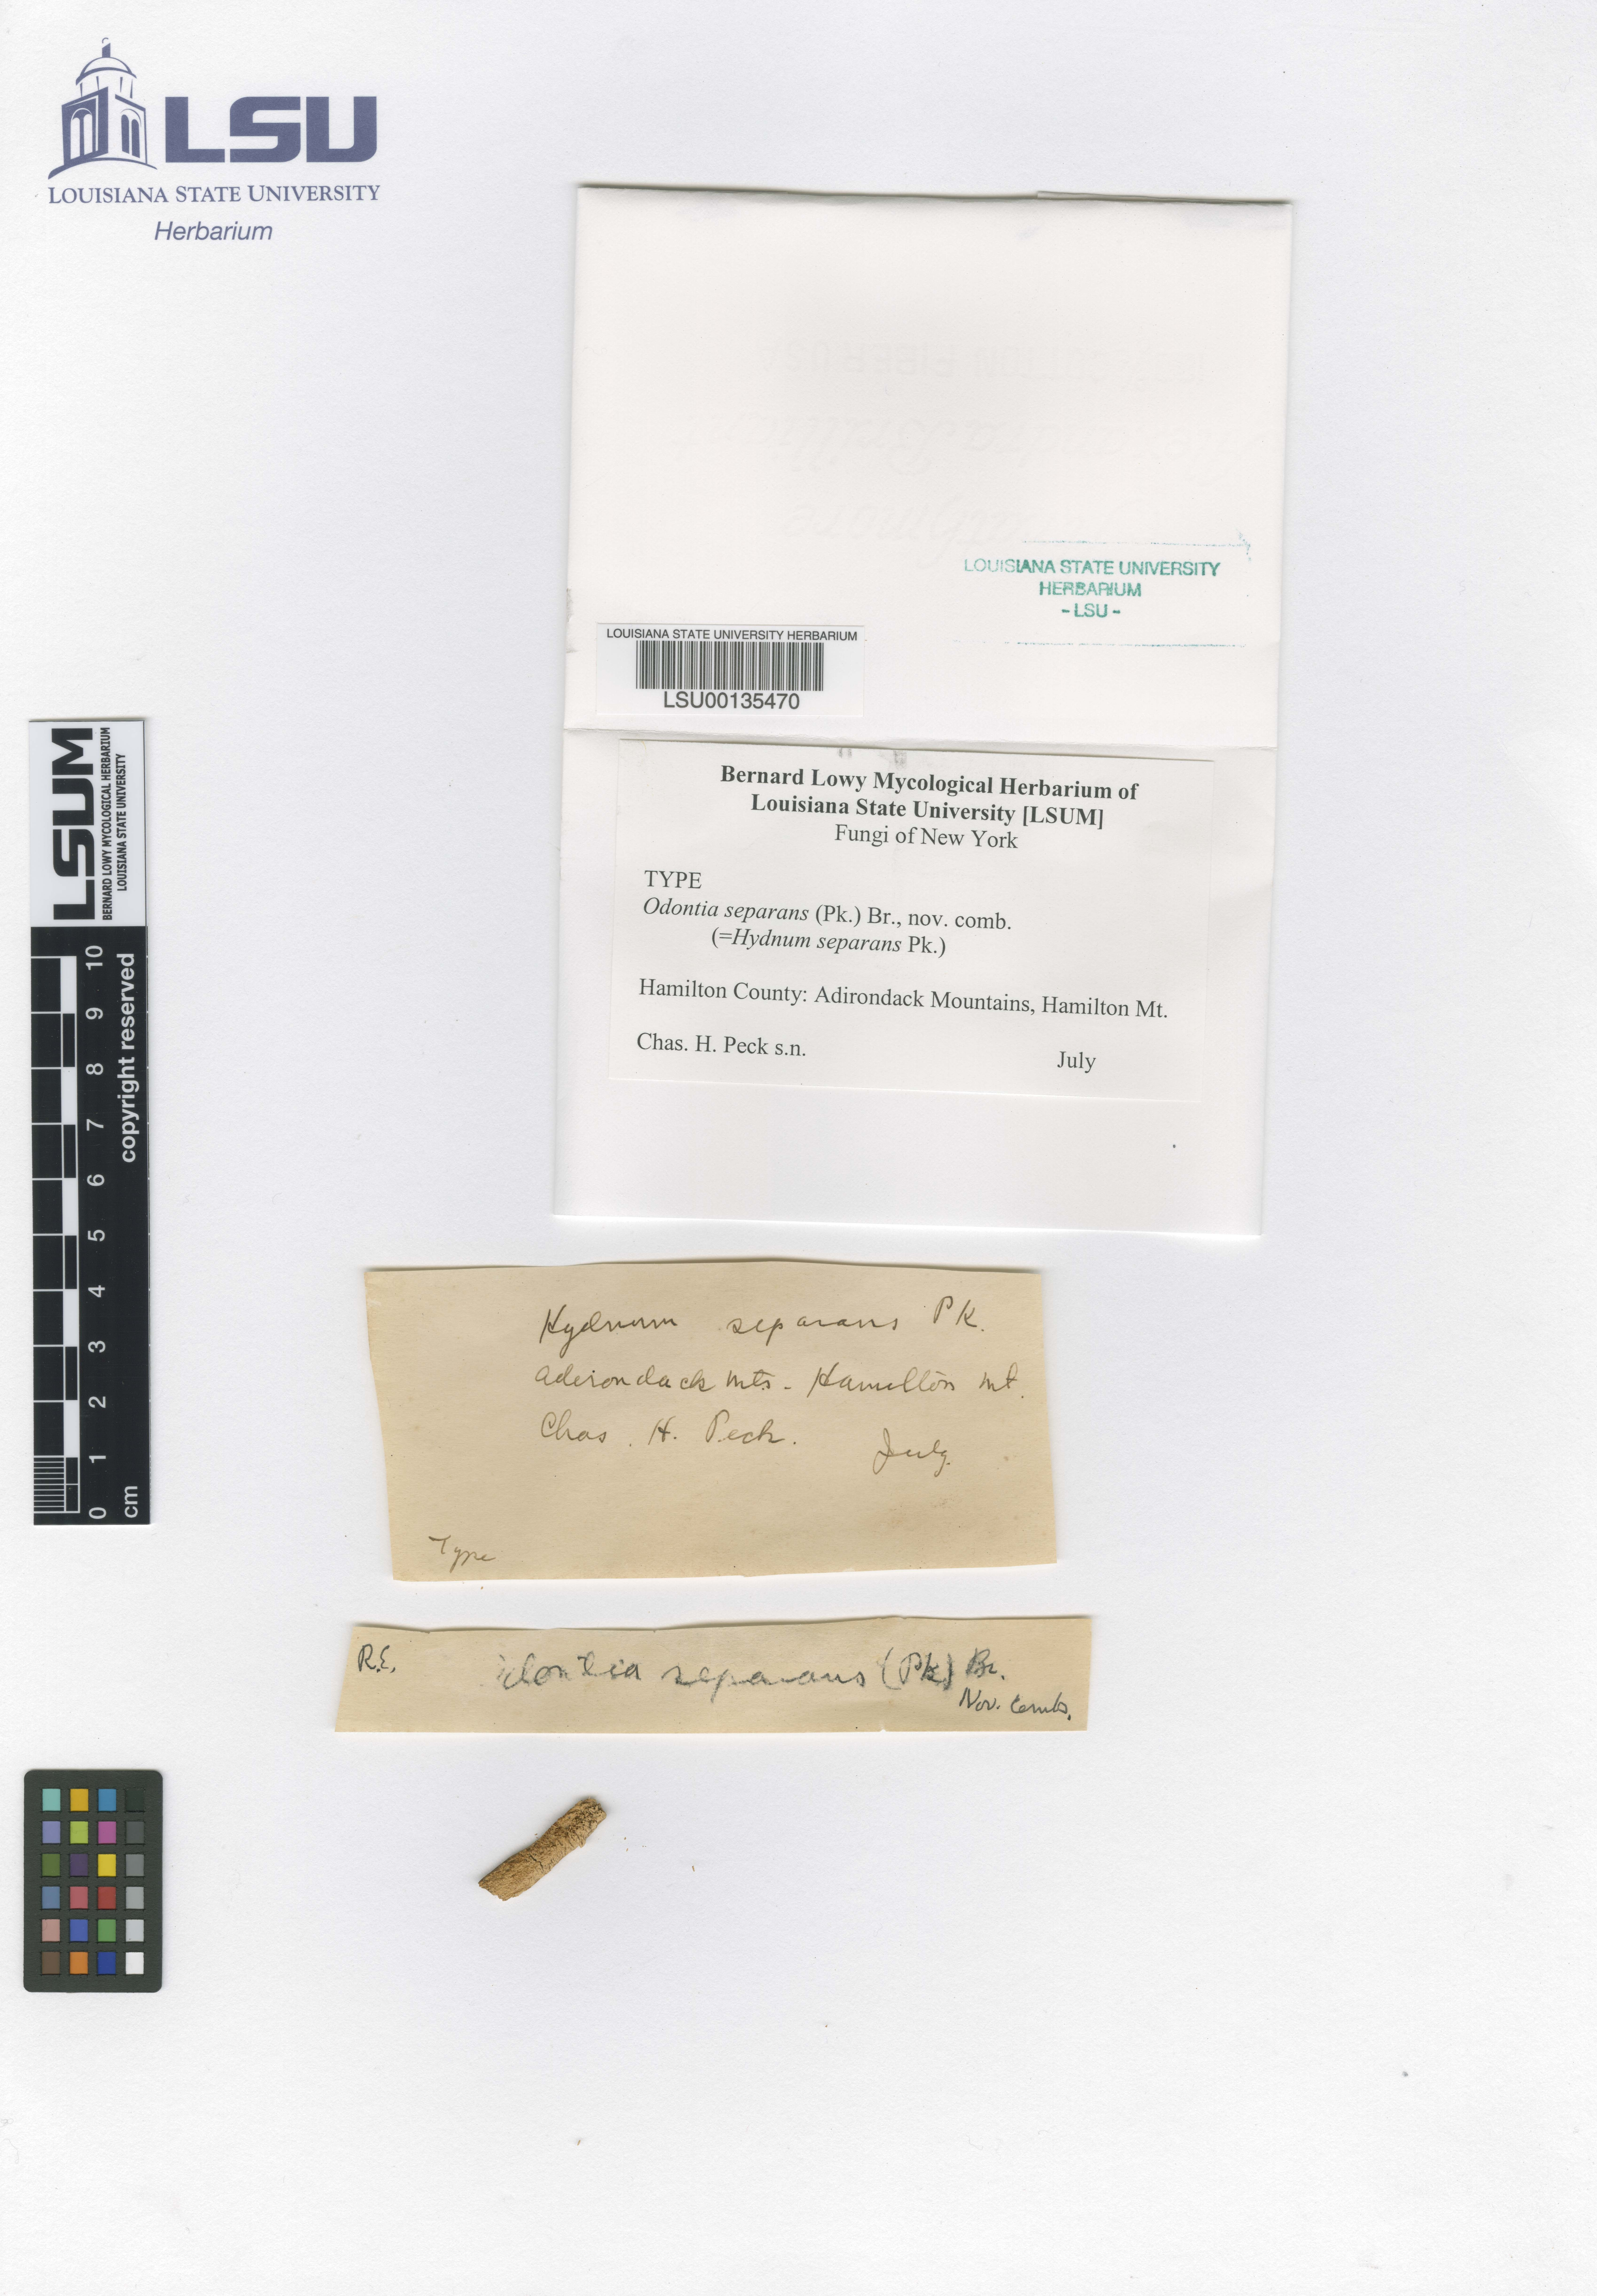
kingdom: Fungi
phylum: Basidiomycota
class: Agaricomycetes
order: Russulales
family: Hericiaceae
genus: Dentipellicula
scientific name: Dentipellicula leptodon
